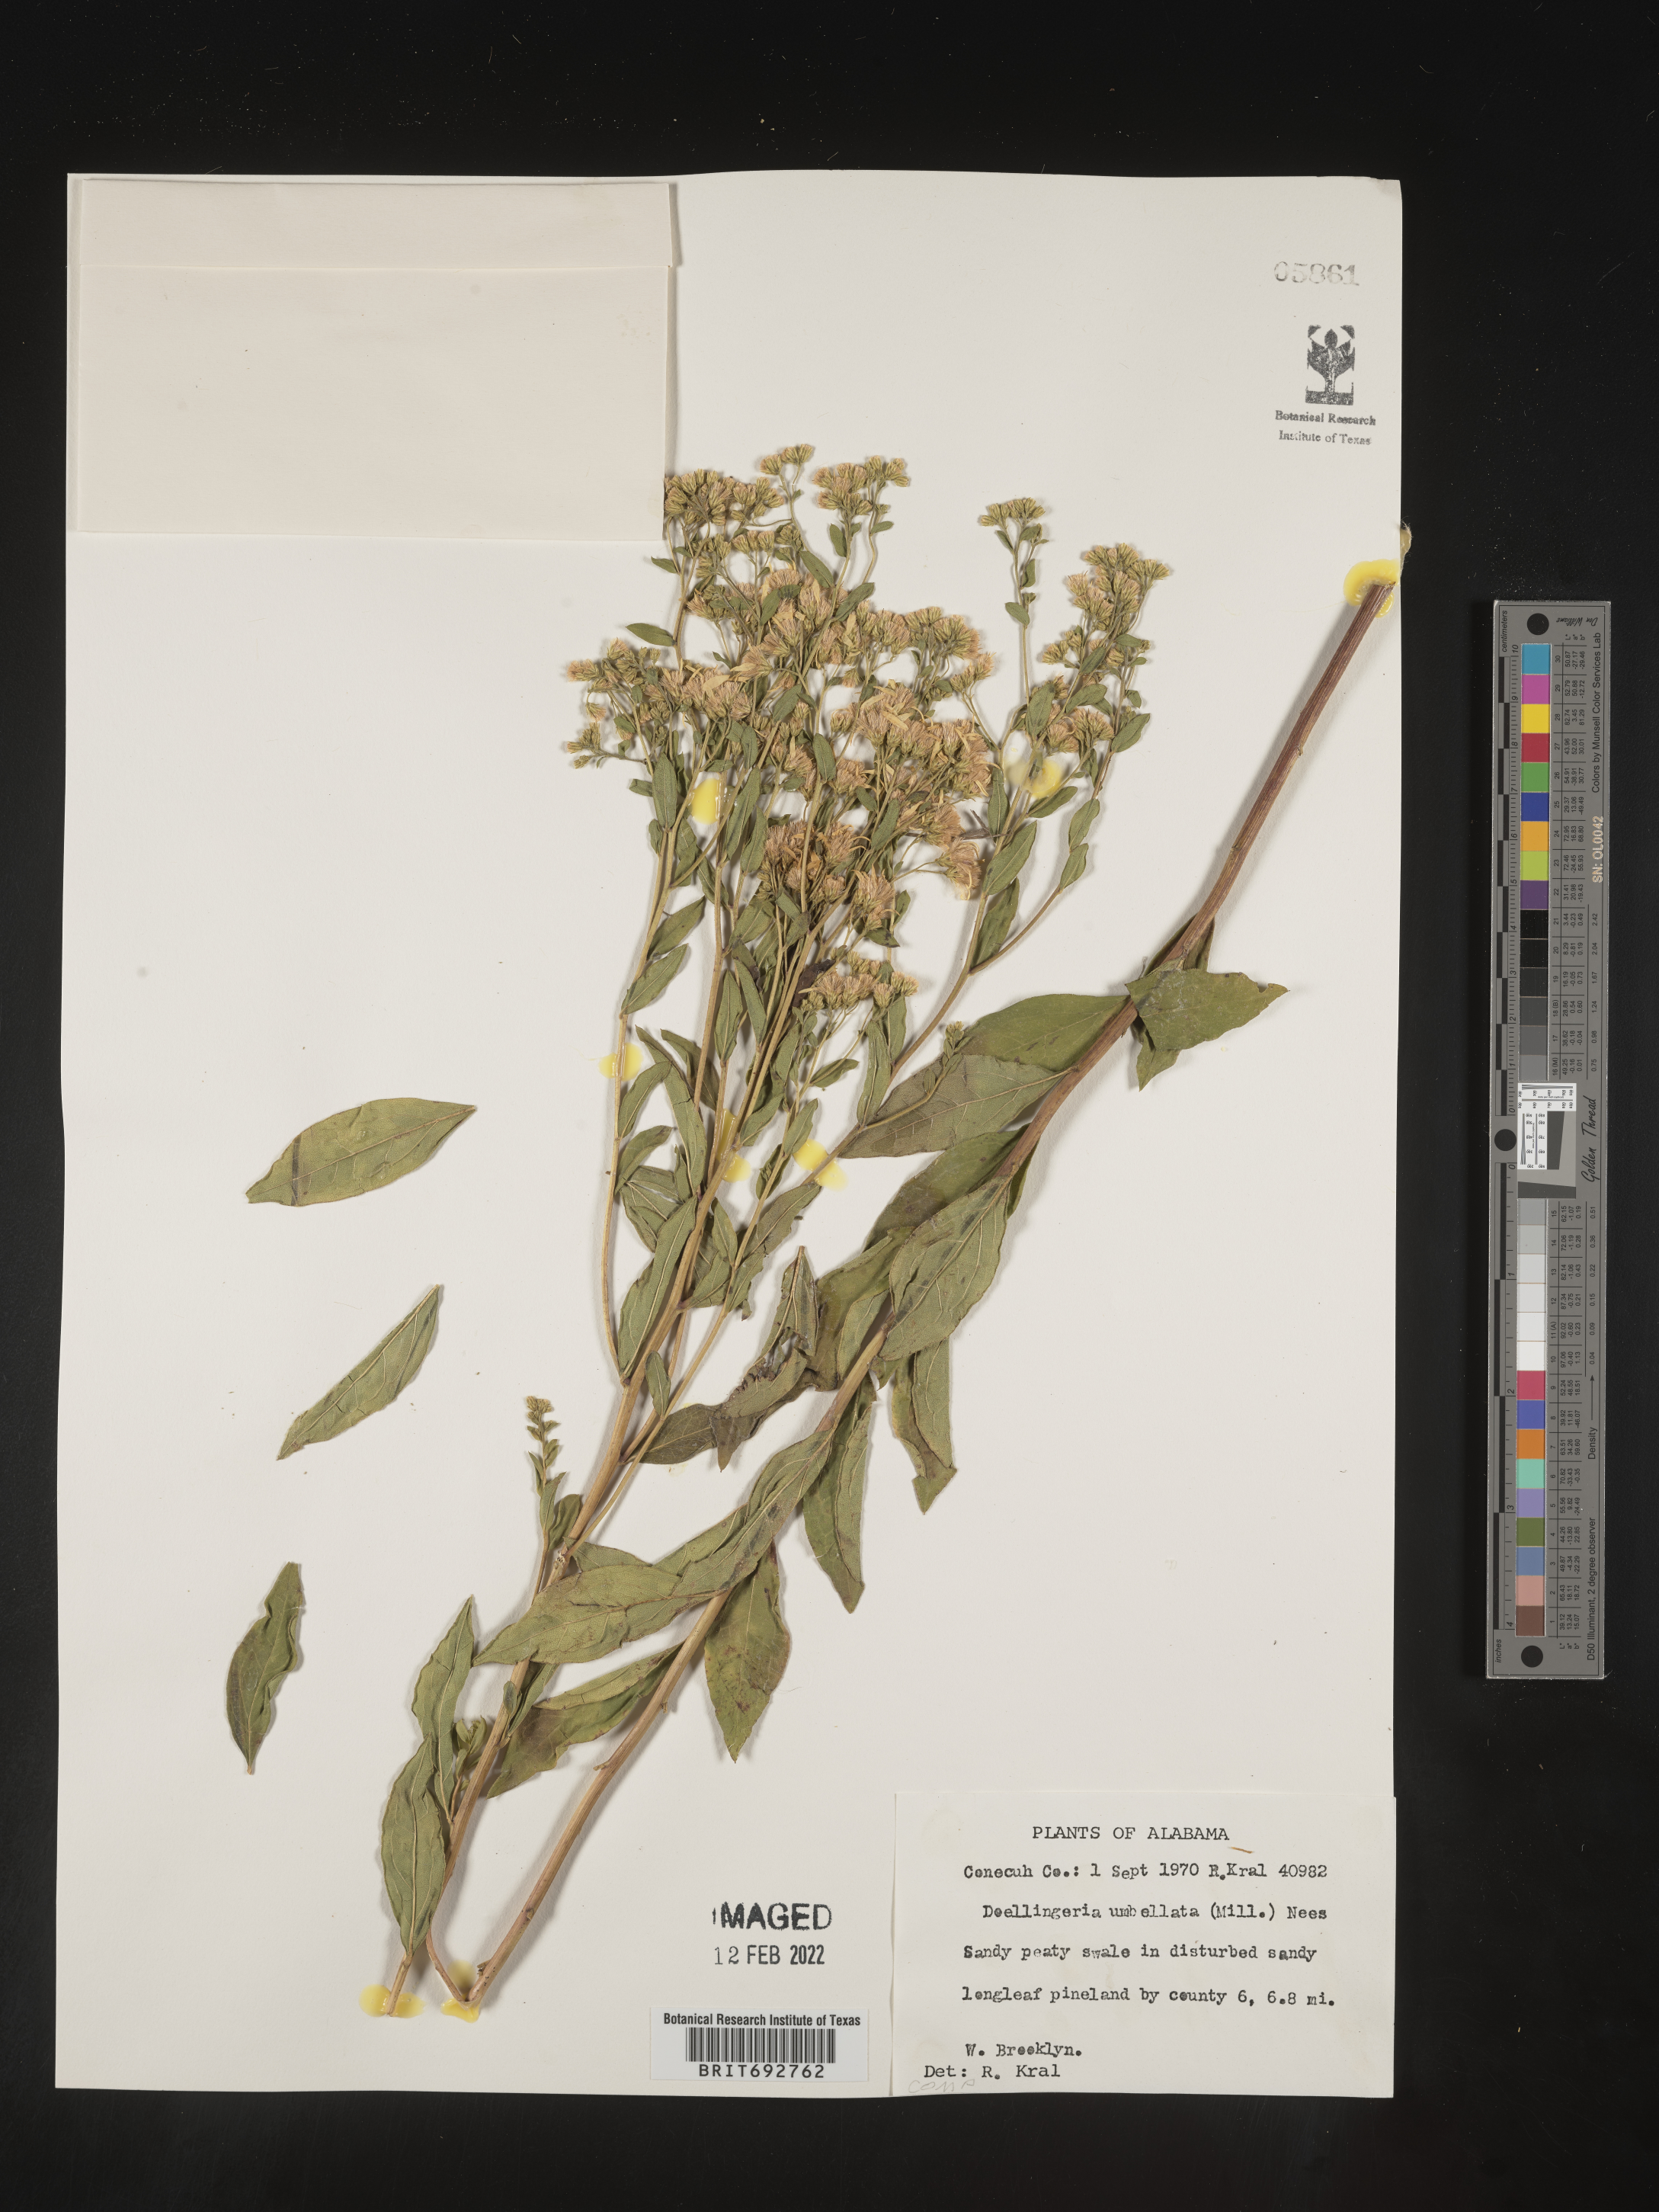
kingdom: Plantae
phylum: Tracheophyta
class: Magnoliopsida
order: Asterales
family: Asteraceae
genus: Doellingeria
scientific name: Doellingeria sericocarpoides
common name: Southern tall flat-top aster
